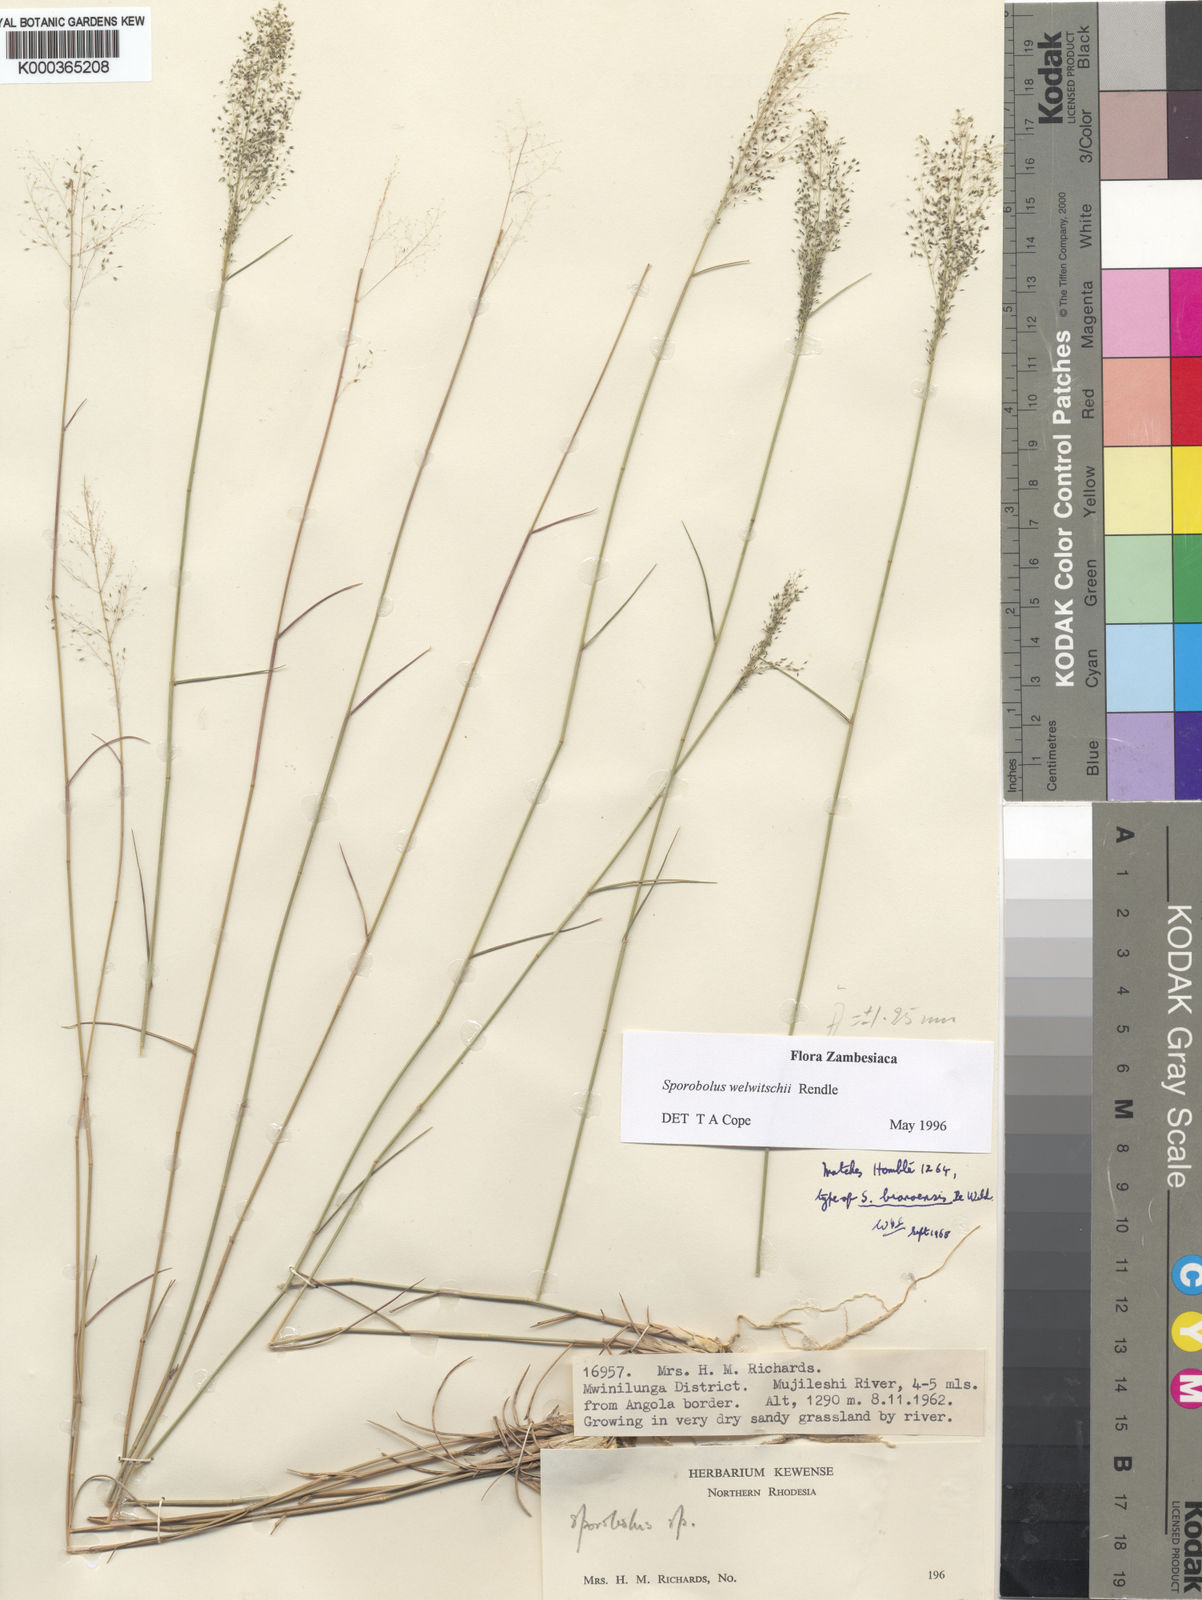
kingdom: Plantae
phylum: Tracheophyta
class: Liliopsida
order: Poales
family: Poaceae
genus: Sporobolus
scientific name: Sporobolus welwitschii
